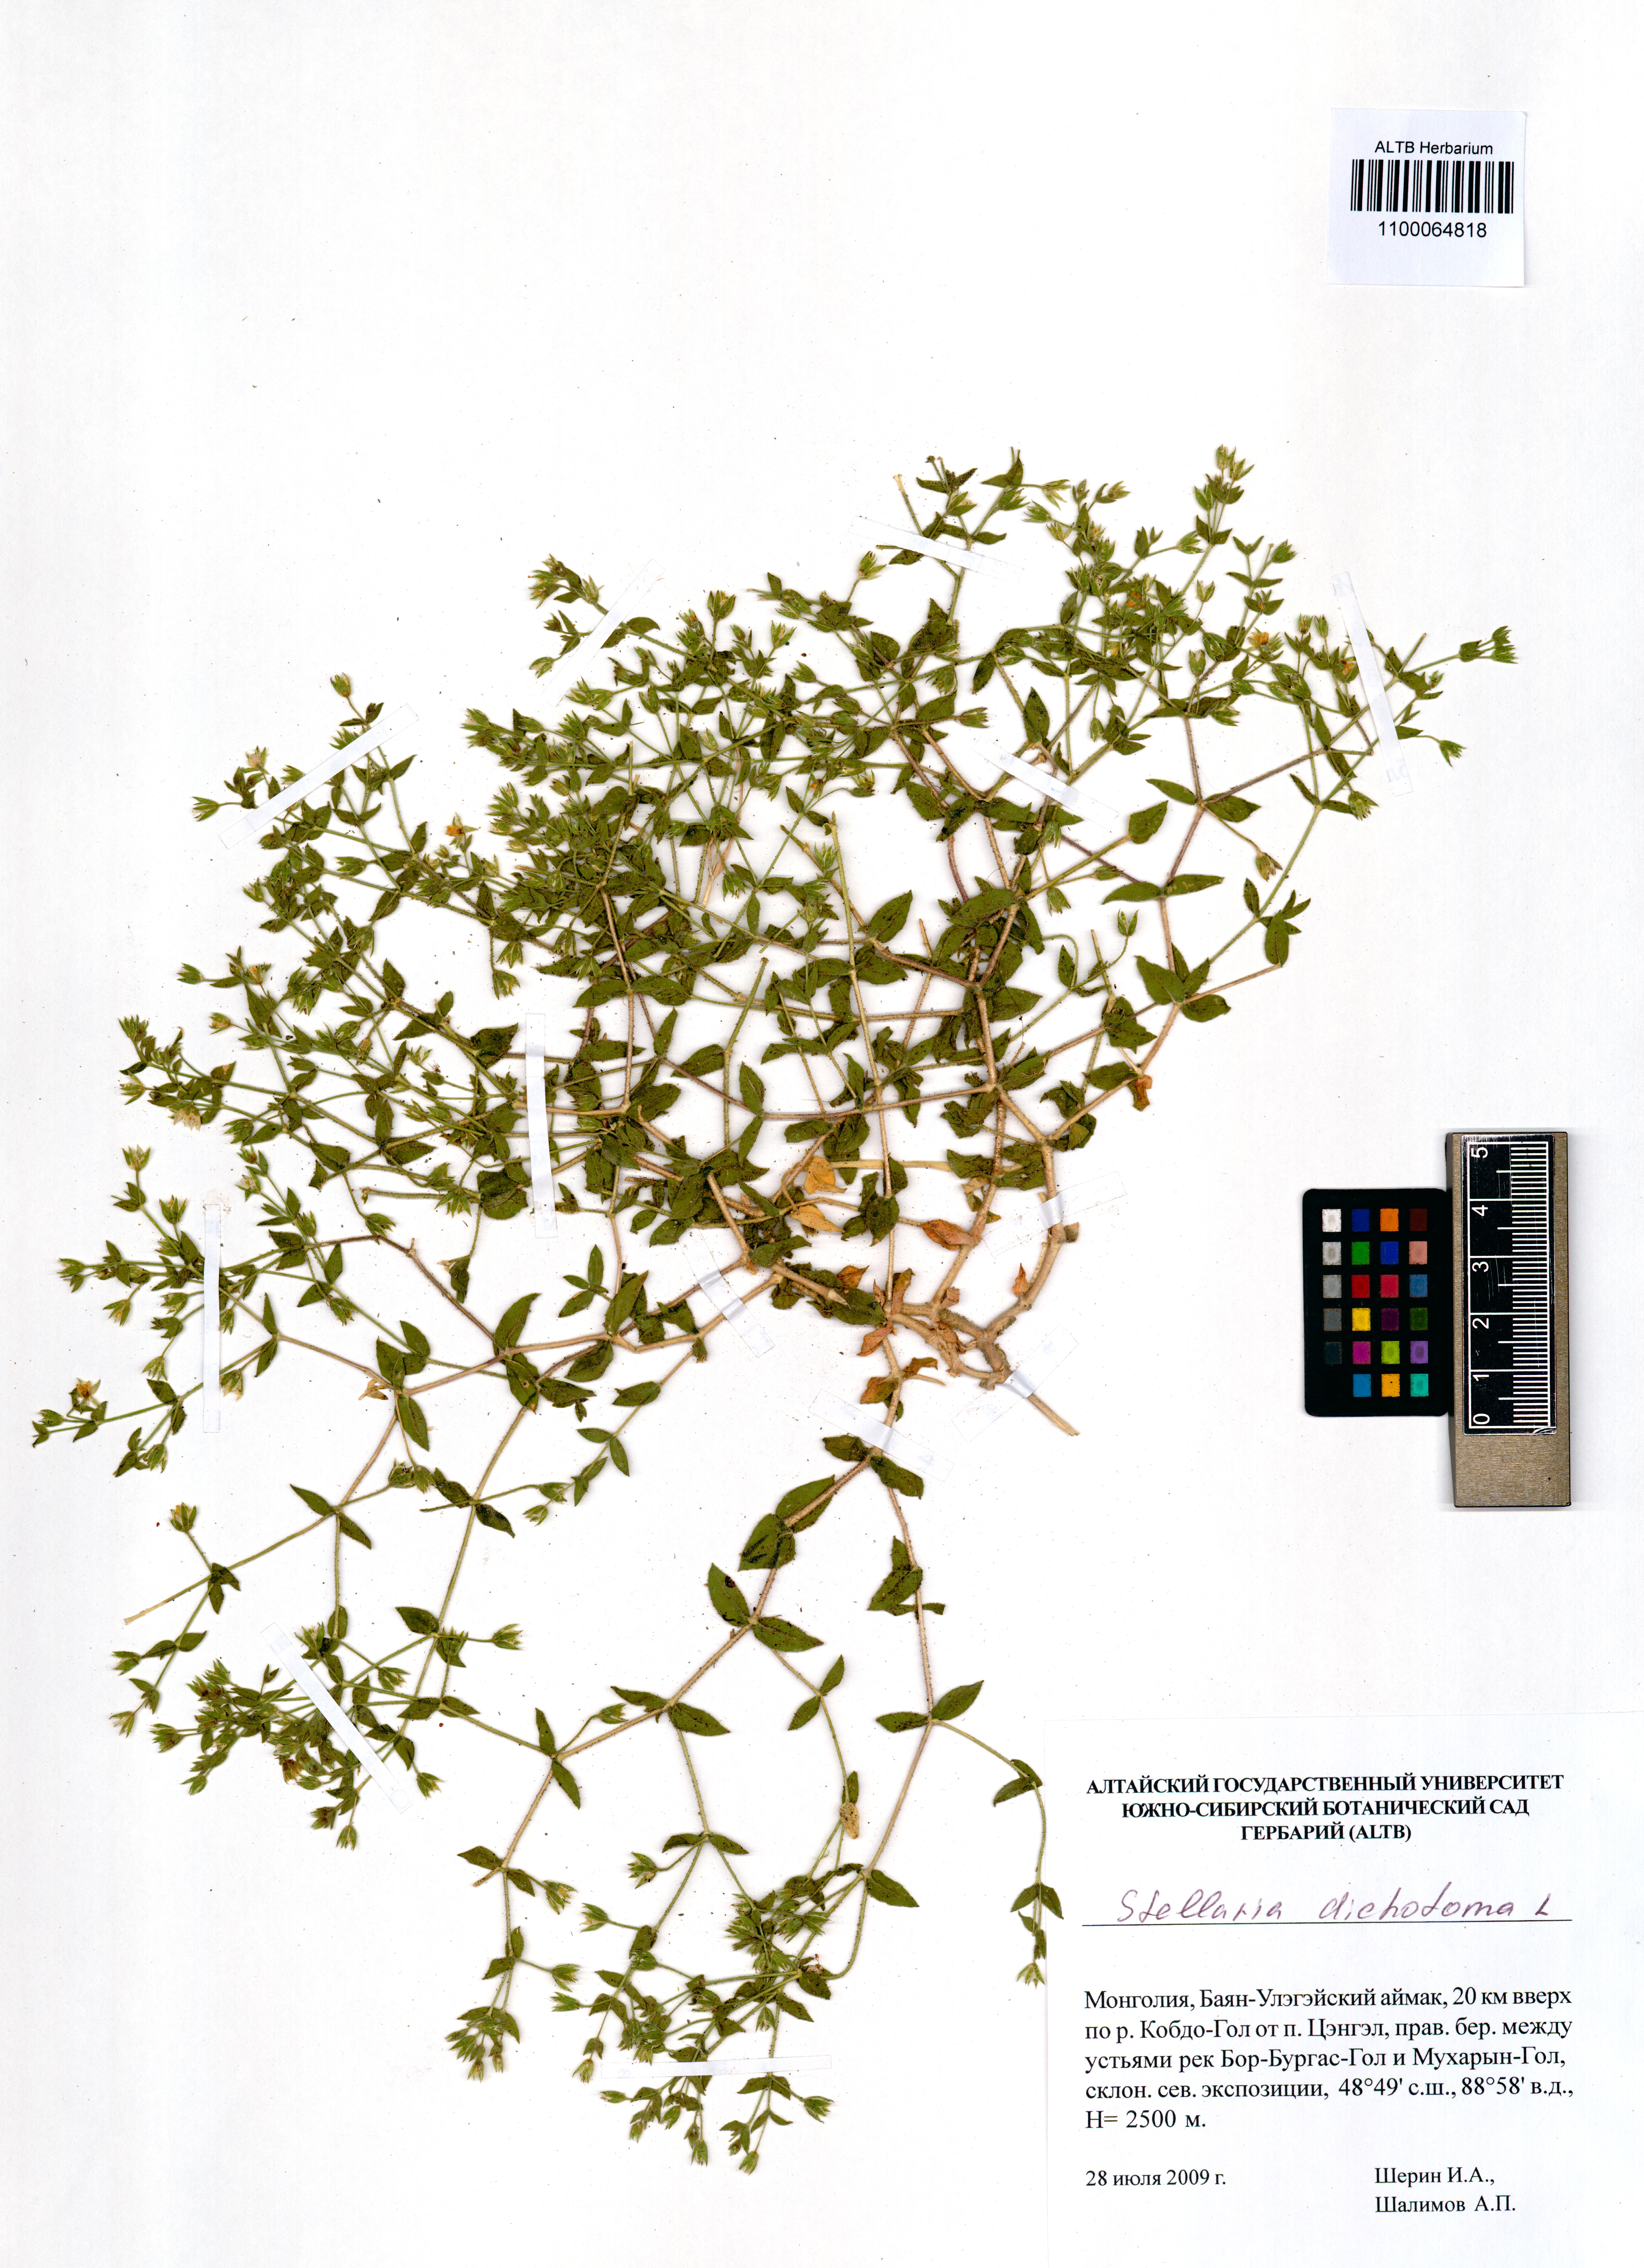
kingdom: Plantae
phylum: Tracheophyta
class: Magnoliopsida
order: Caryophyllales
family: Caryophyllaceae
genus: Mesostemma
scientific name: Mesostemma dichotomum
